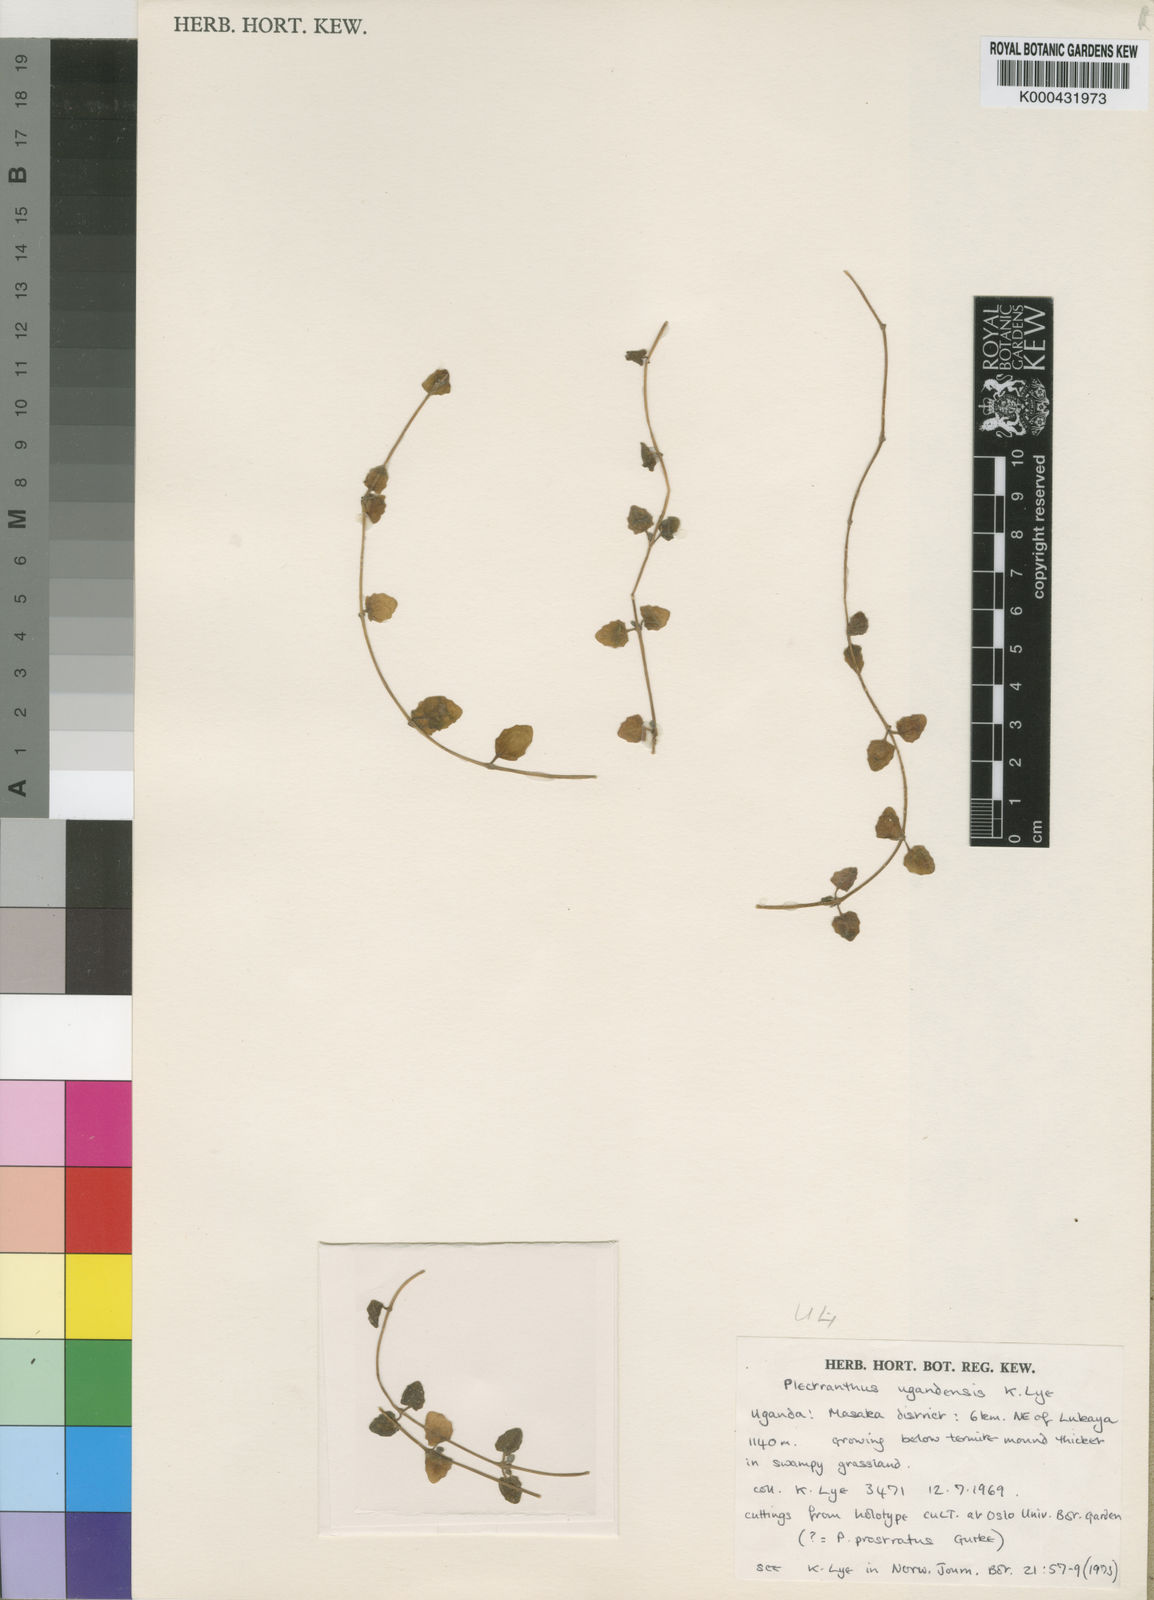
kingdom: Plantae
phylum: Tracheophyta
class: Magnoliopsida
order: Lamiales
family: Lamiaceae
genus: Plectranthus
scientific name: Plectranthus
